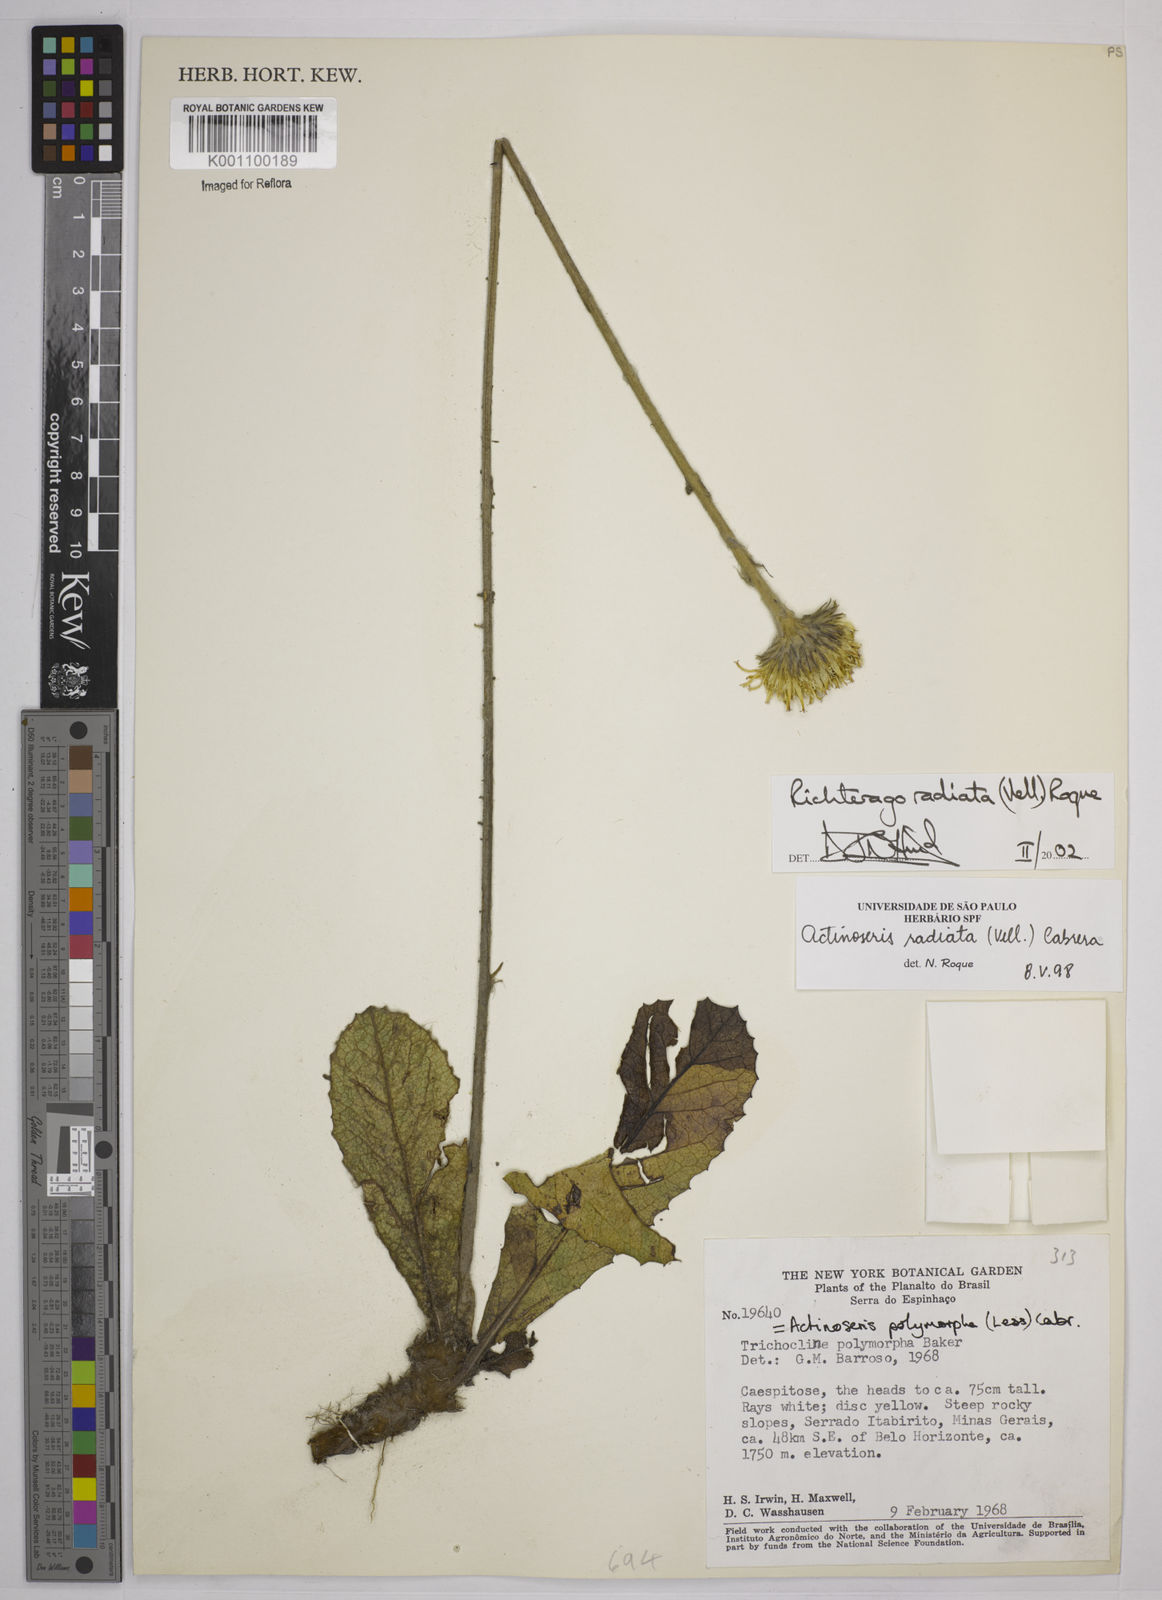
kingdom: Plantae
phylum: Tracheophyta
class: Magnoliopsida
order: Asterales
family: Asteraceae
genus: Richterago
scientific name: Richterago radiata
